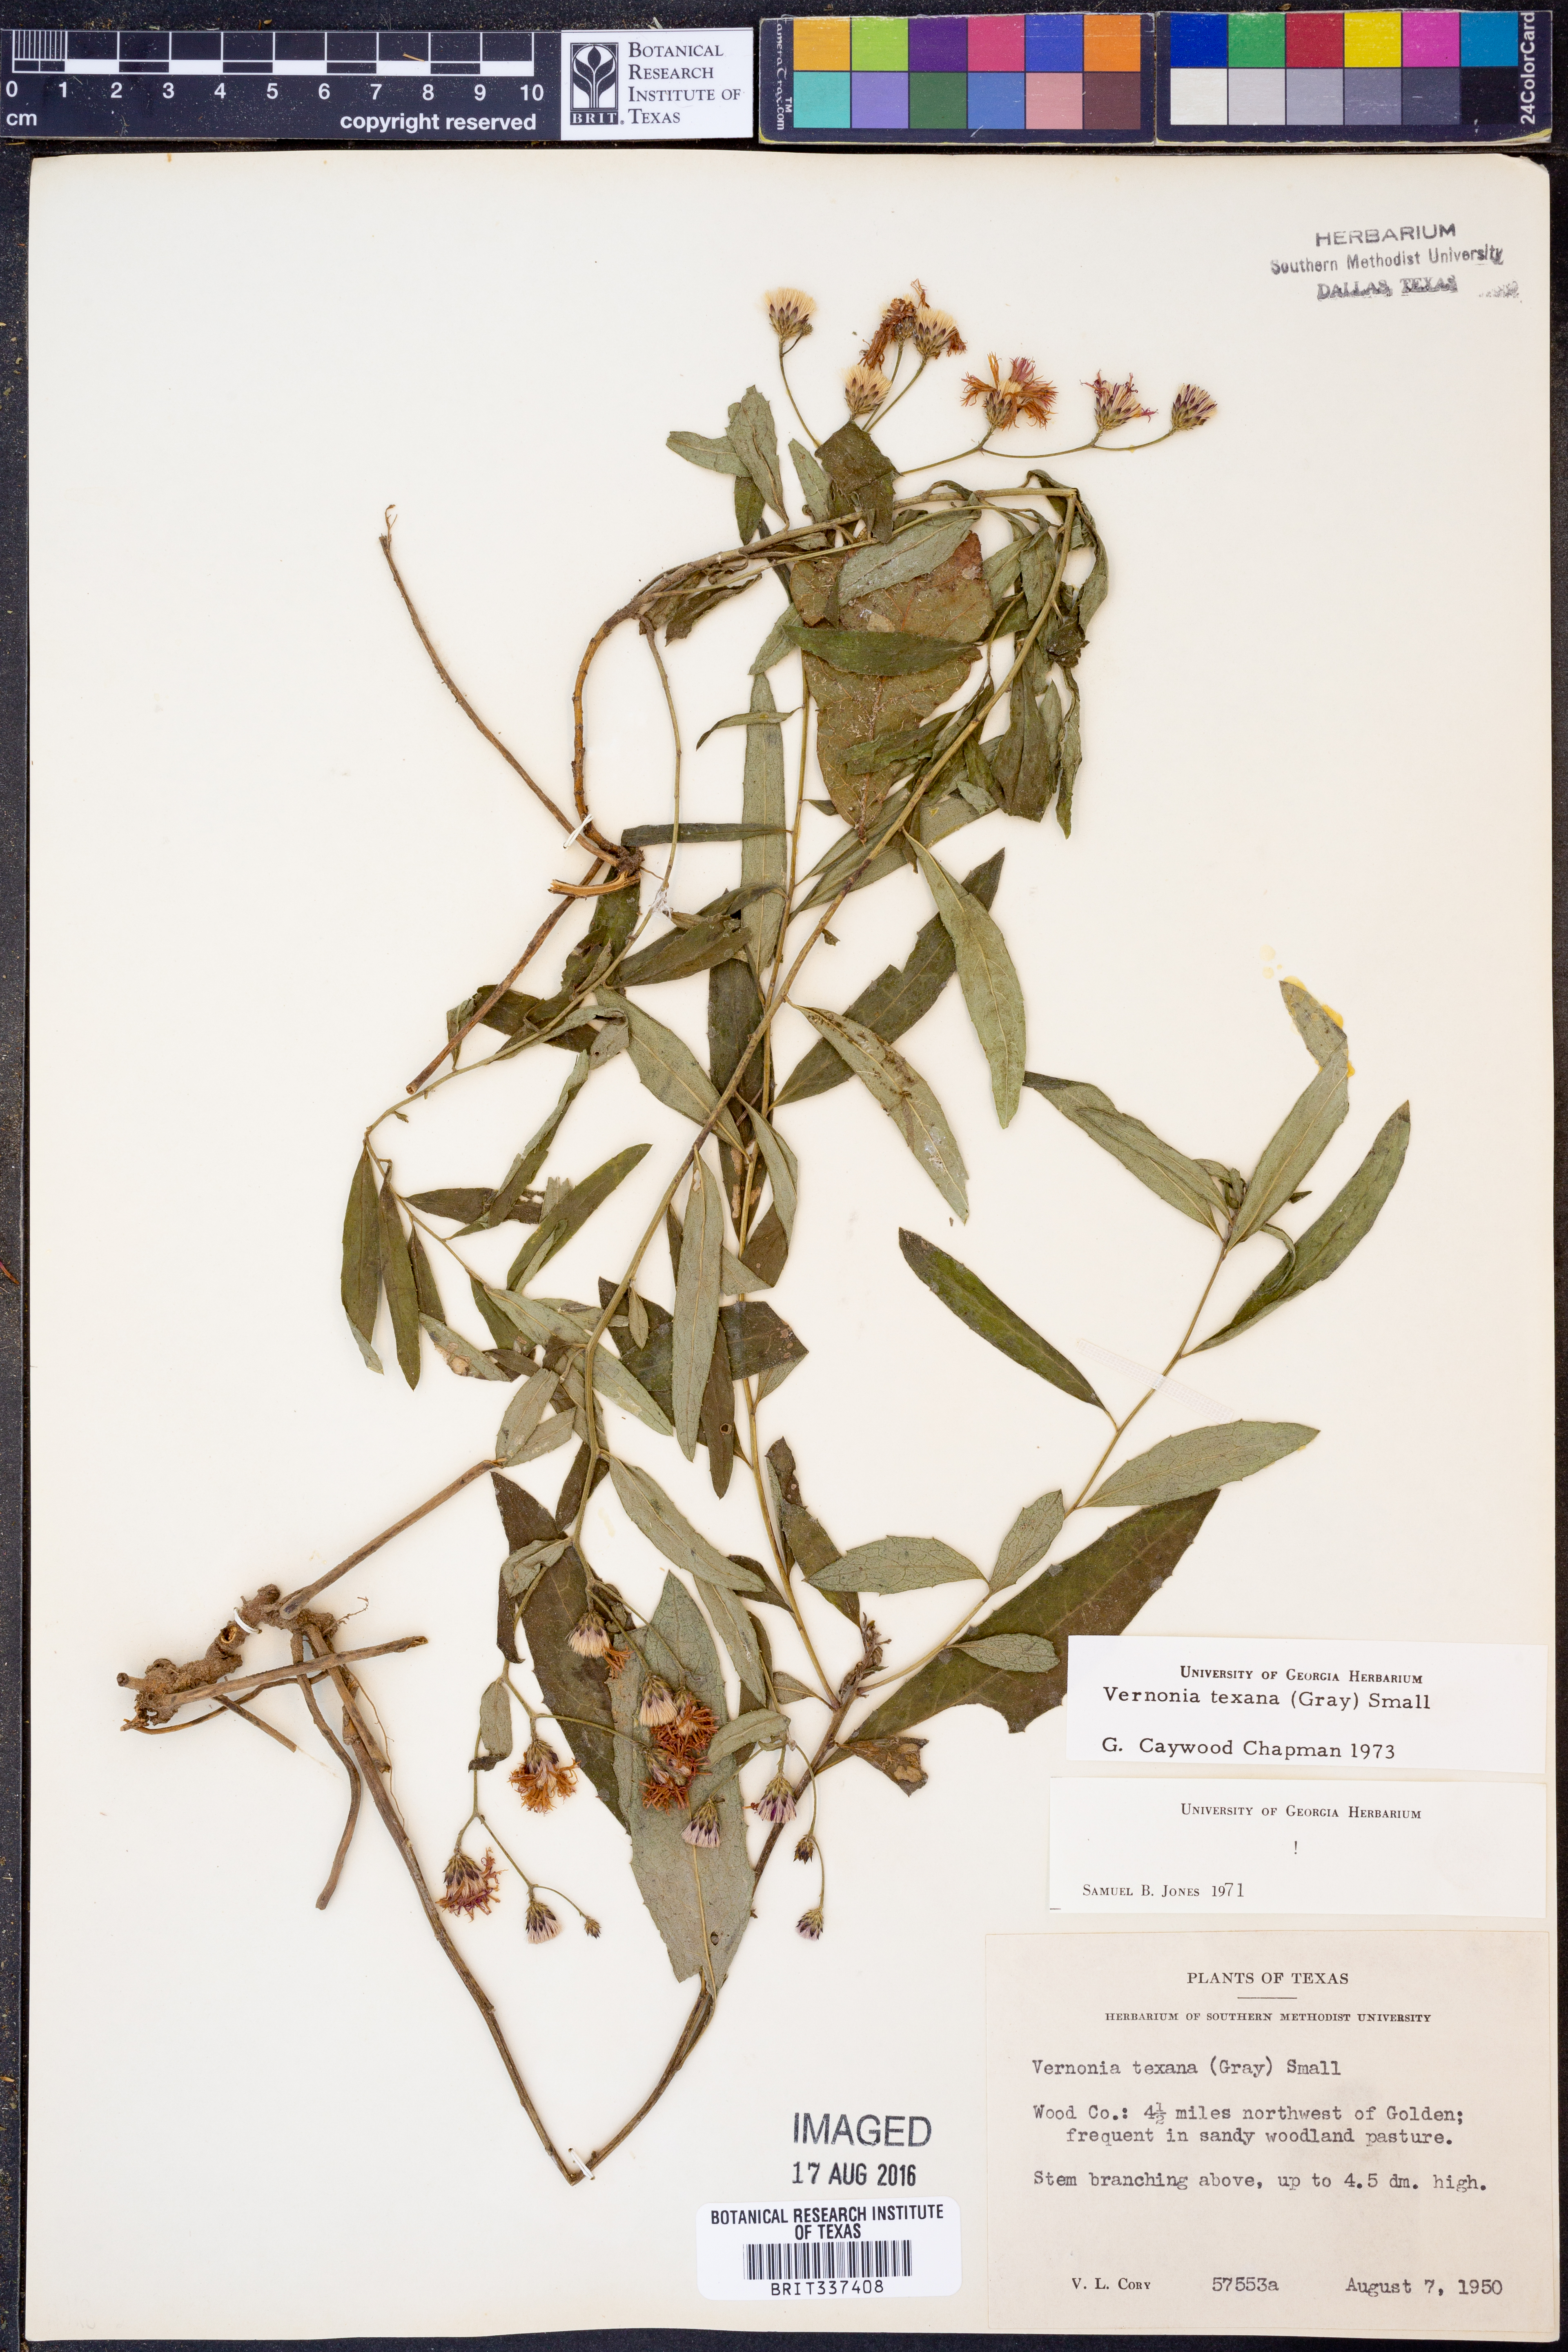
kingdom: Plantae
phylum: Tracheophyta
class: Magnoliopsida
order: Asterales
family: Asteraceae
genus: Vernonia
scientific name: Vernonia texana
